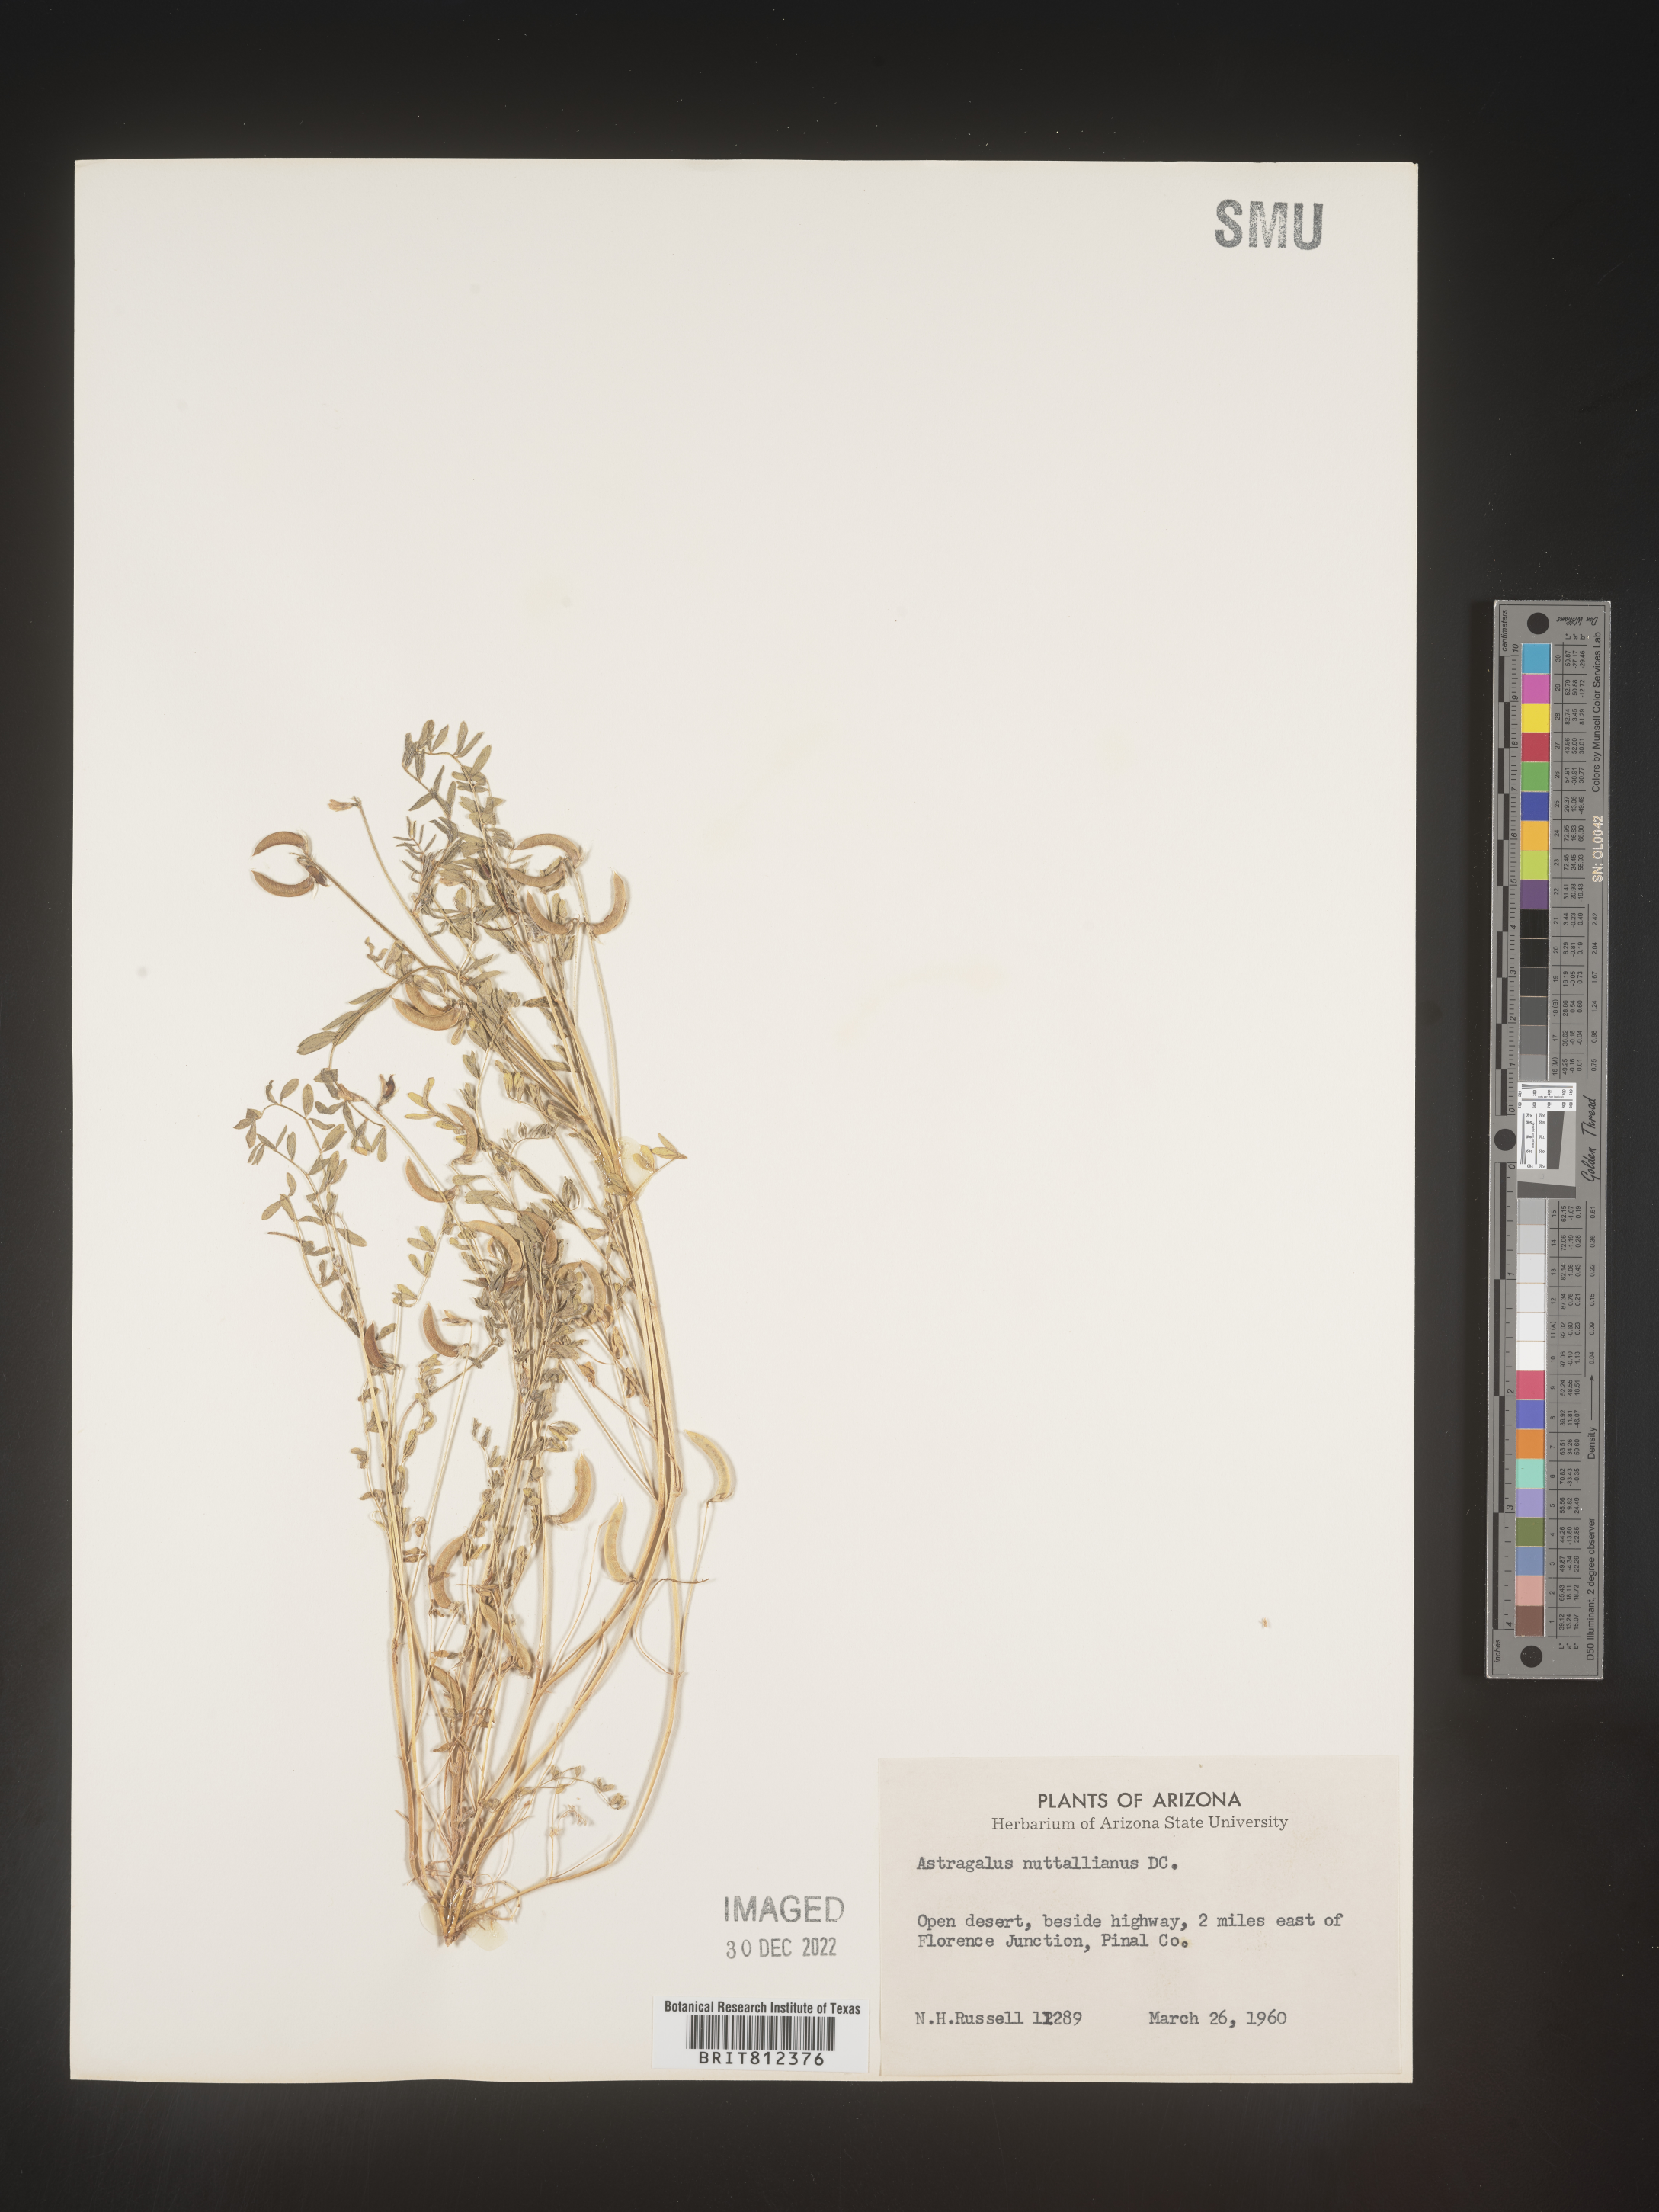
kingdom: Plantae
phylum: Tracheophyta
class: Magnoliopsida
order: Fabales
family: Fabaceae
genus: Astragalus
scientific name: Astragalus nuttallianus
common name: Smallflowered milkvetch
